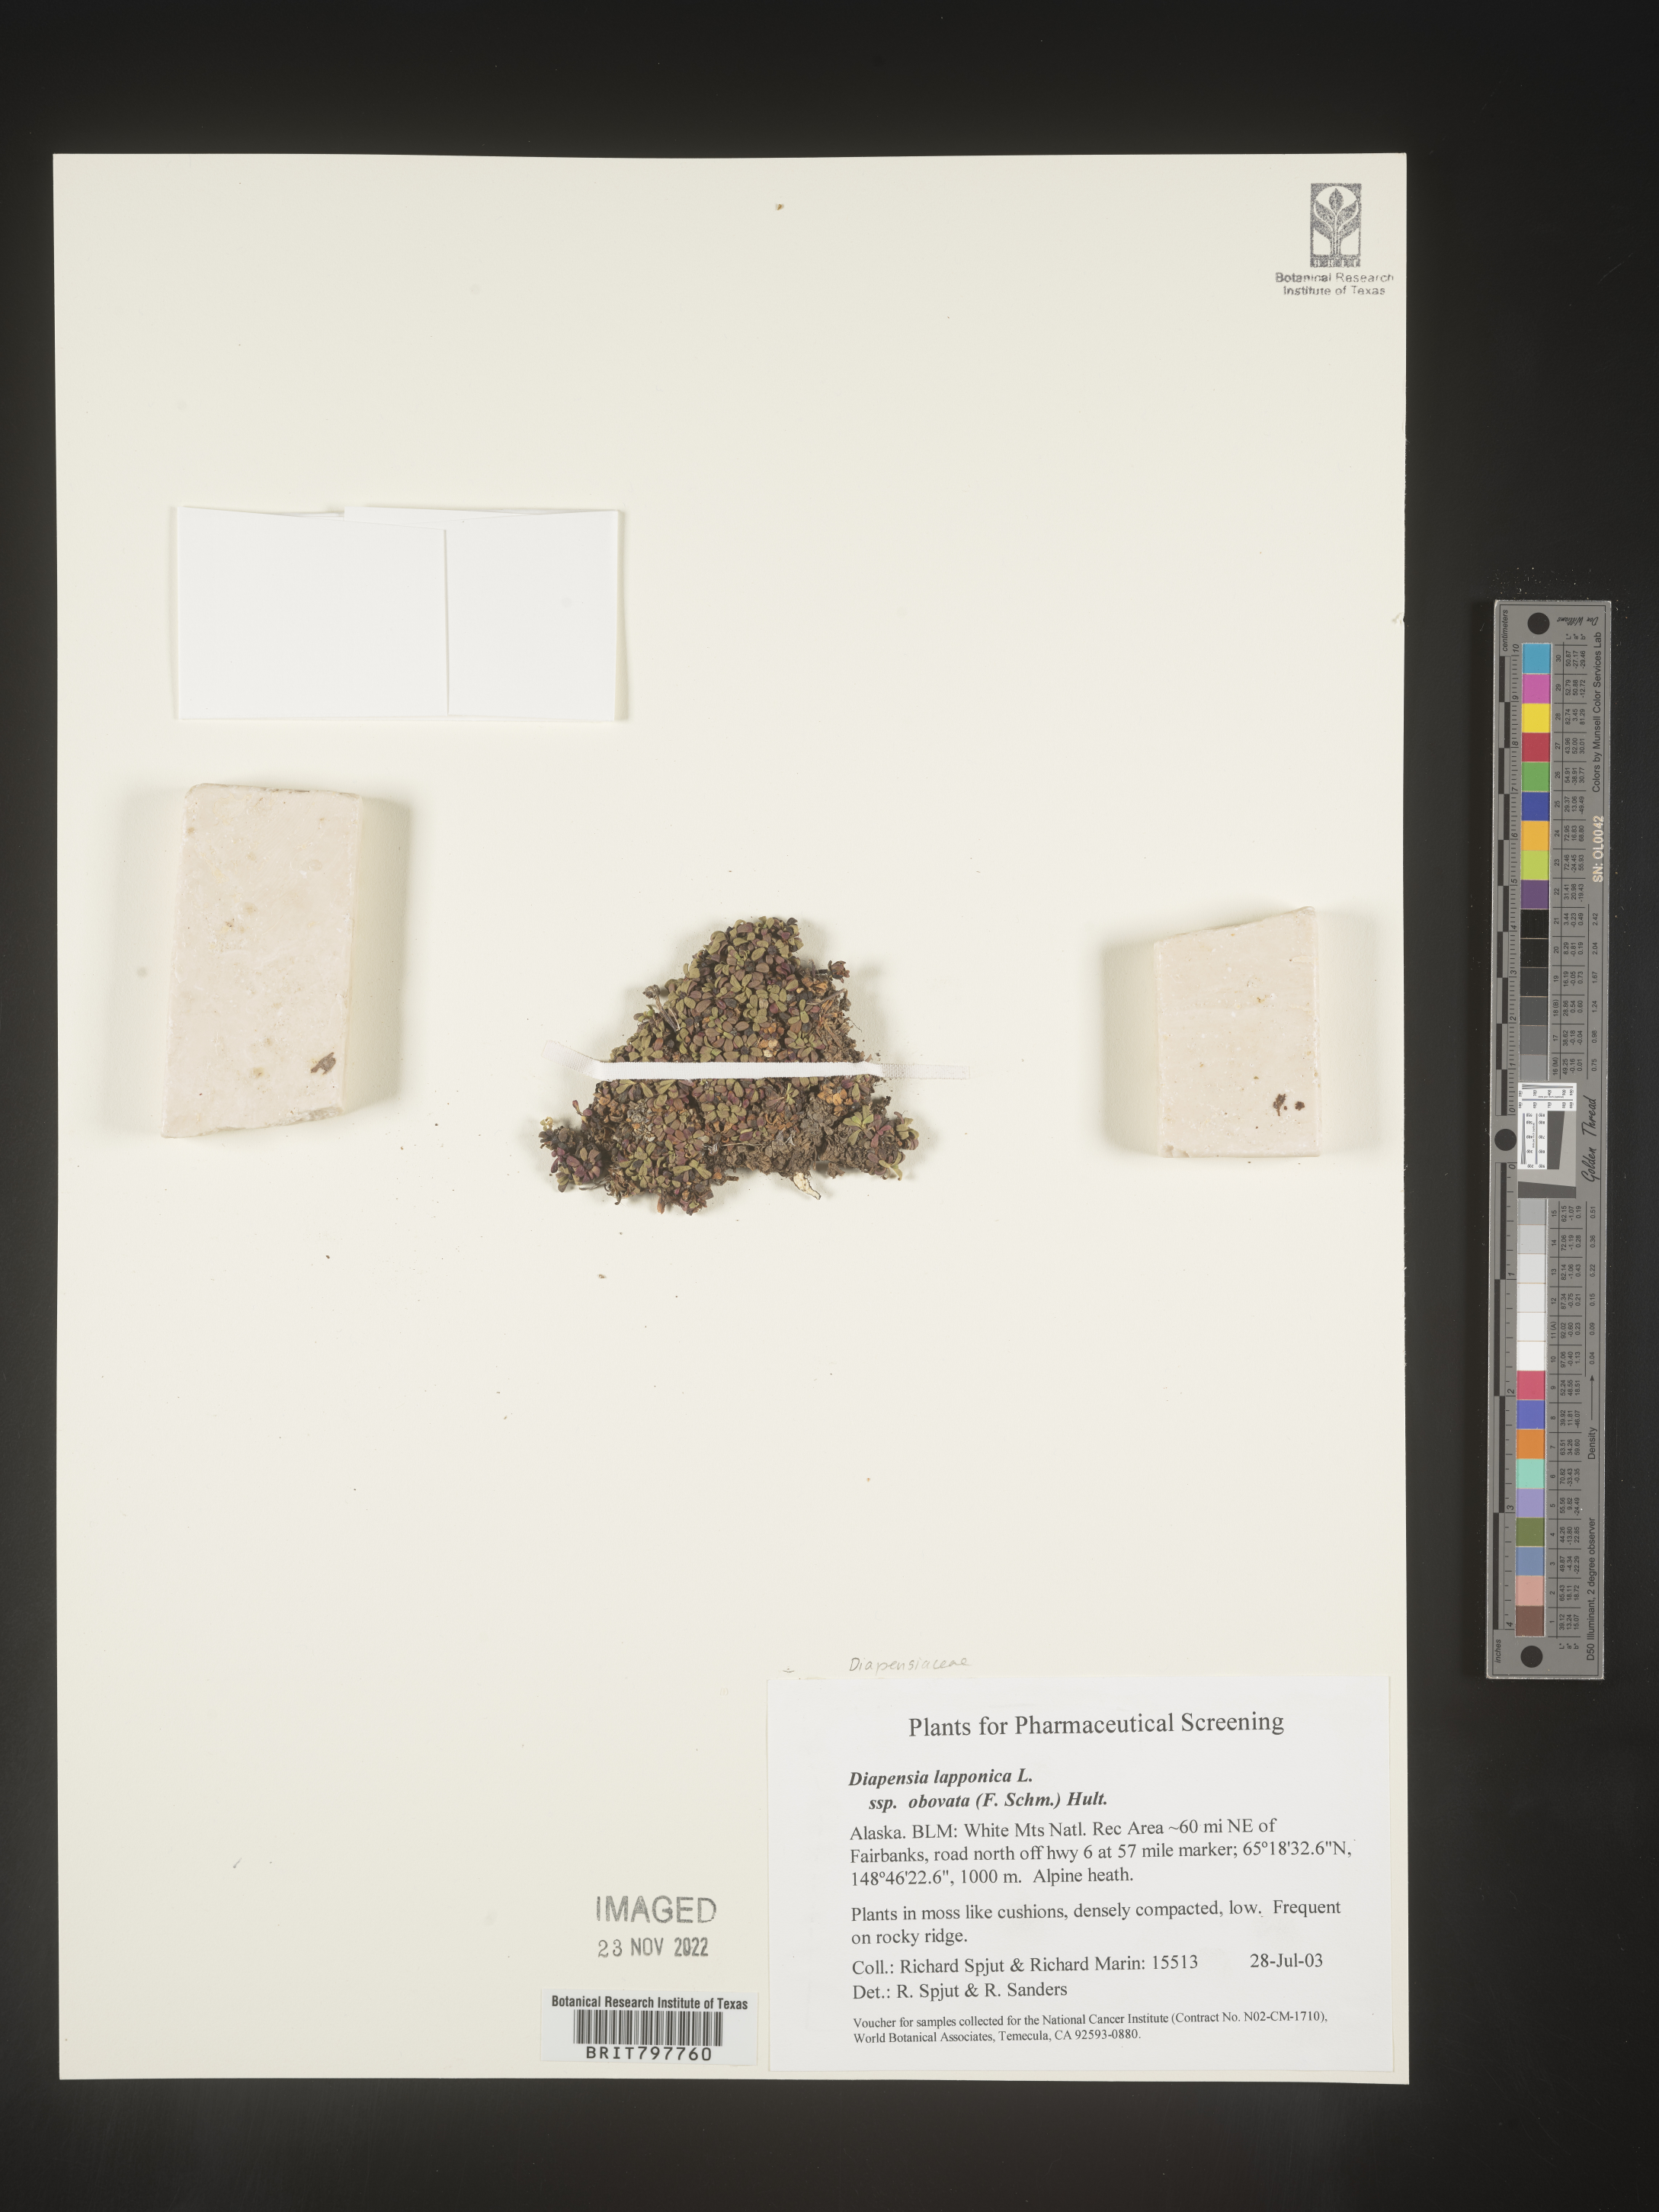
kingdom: Plantae
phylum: Tracheophyta
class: Magnoliopsida
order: Ericales
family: Diapensiaceae
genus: Diapensia
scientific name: Diapensia obovata
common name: Alaska diapensia
